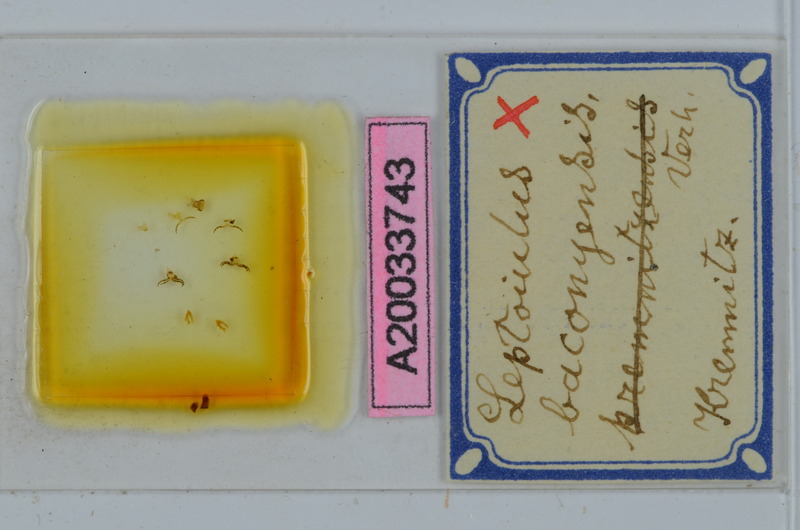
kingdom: Animalia
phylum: Arthropoda
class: Diplopoda
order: Julida
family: Julidae
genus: Leptoiulus
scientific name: Leptoiulus baconyensis
